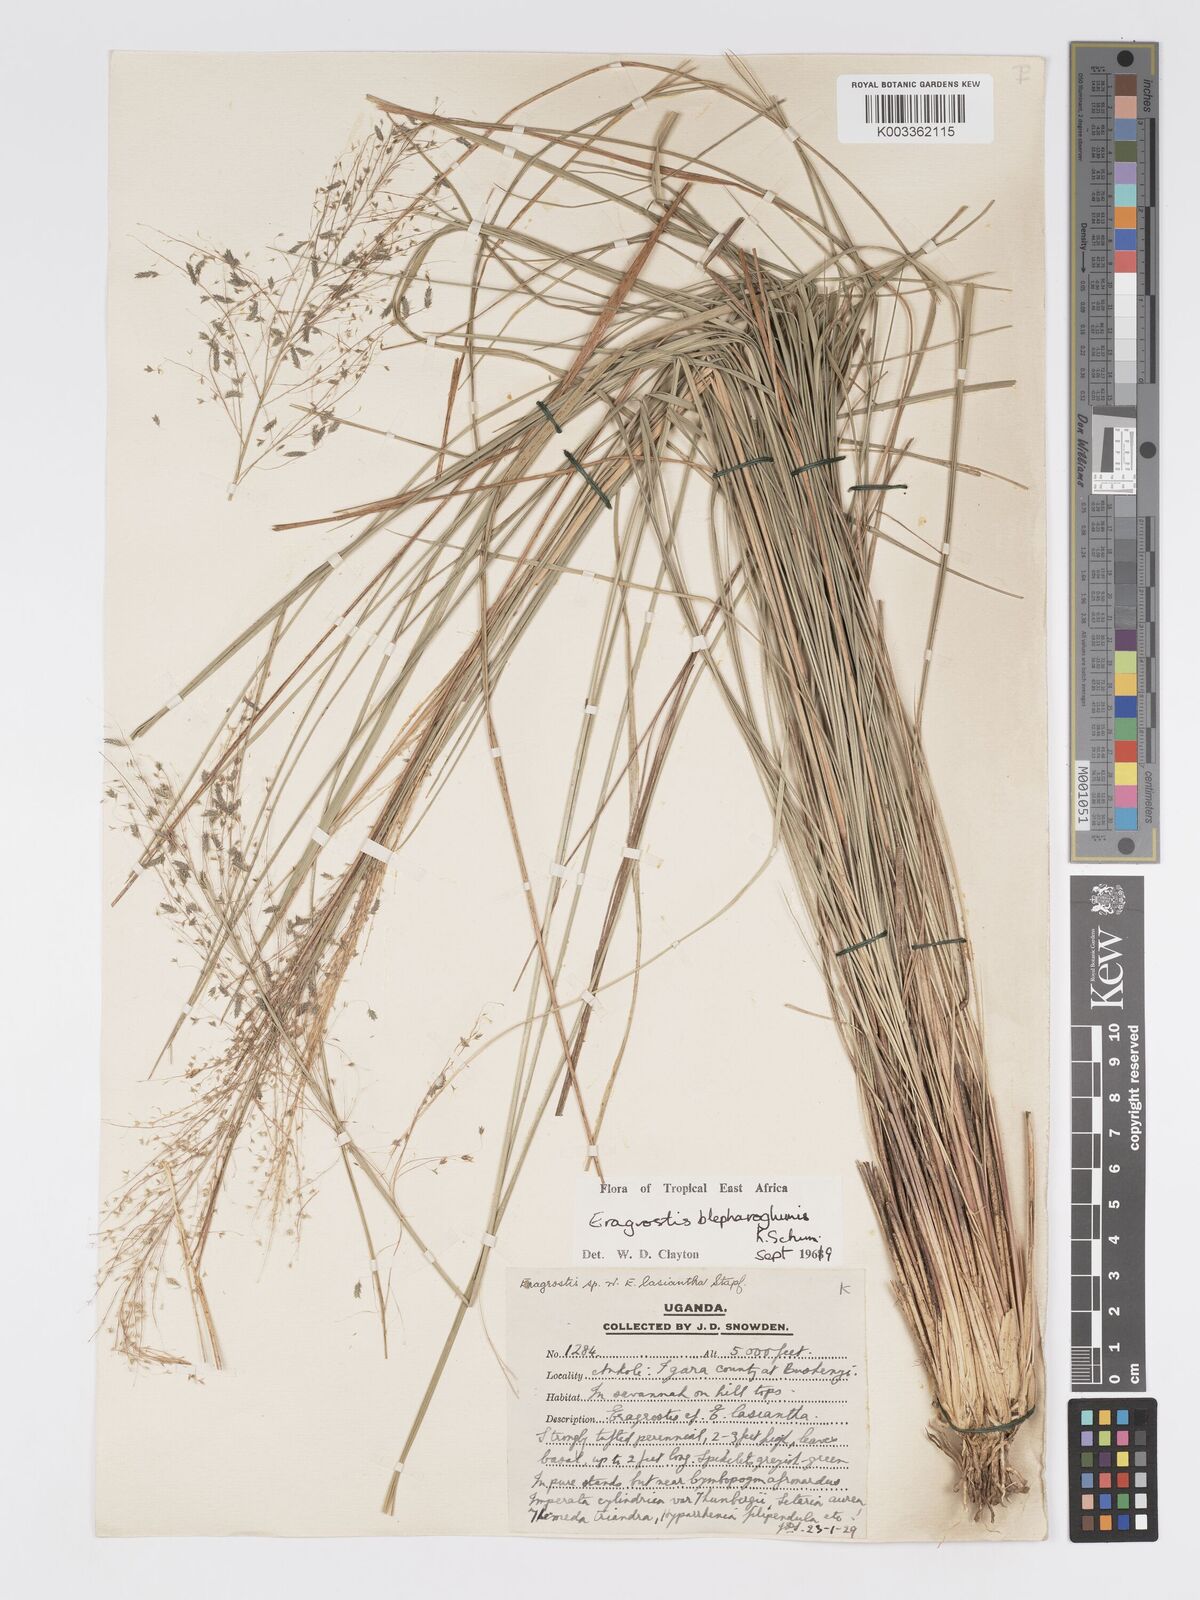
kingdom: Plantae
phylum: Tracheophyta
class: Liliopsida
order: Poales
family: Poaceae
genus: Eragrostis
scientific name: Eragrostis olivacea
